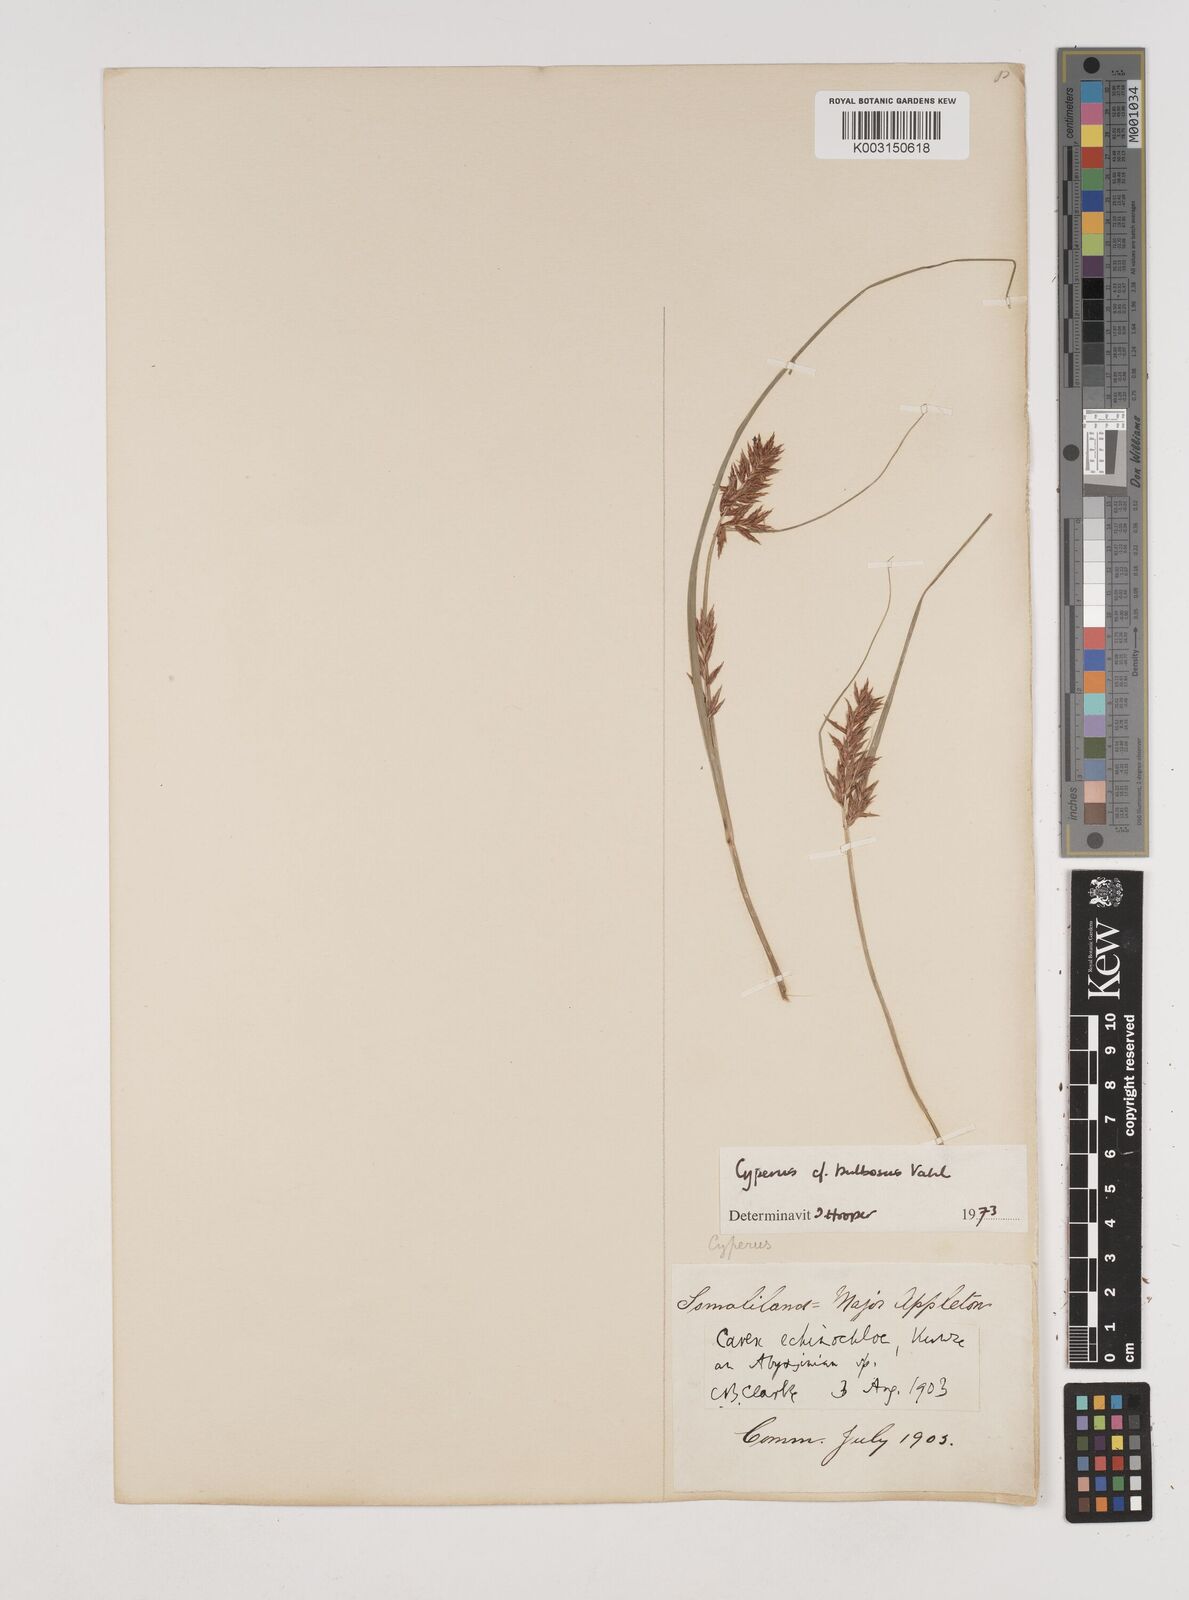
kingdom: Plantae
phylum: Tracheophyta
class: Liliopsida
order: Poales
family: Cyperaceae
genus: Cyperus
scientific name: Cyperus grandibulbosus
